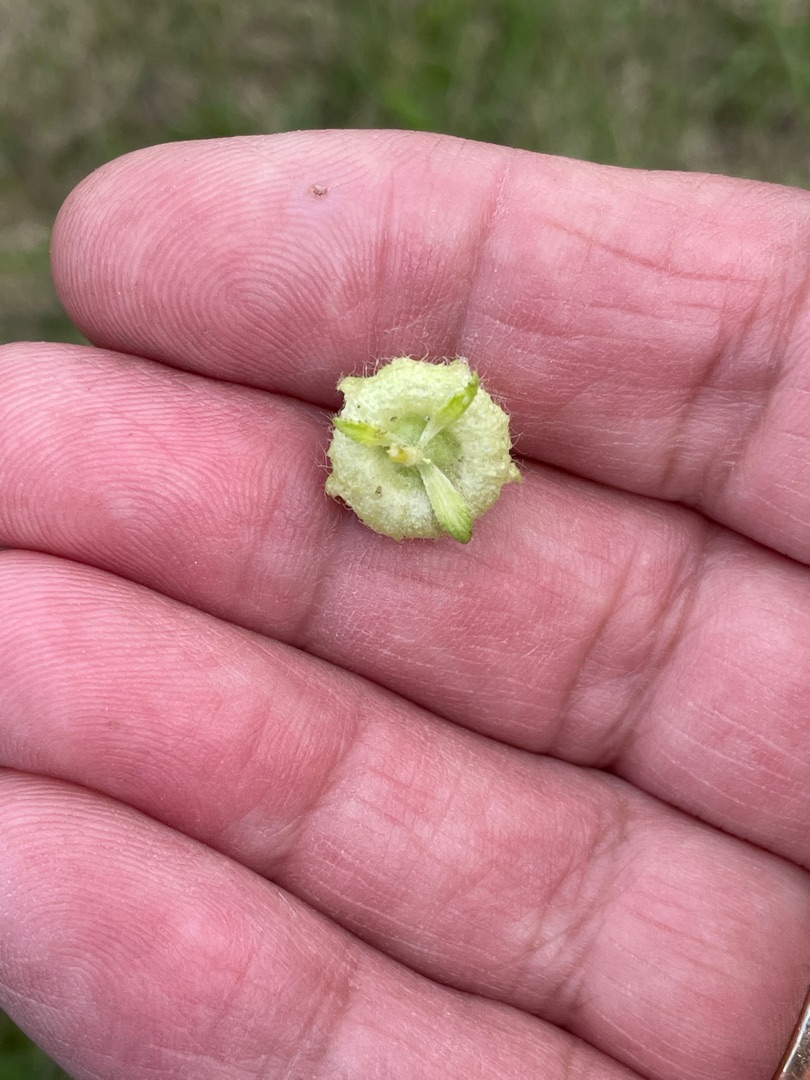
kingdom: Plantae
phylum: Tracheophyta
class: Magnoliopsida
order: Malvales
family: Malvaceae
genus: Malva
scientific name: Malva moschata
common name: Moskus-katost
